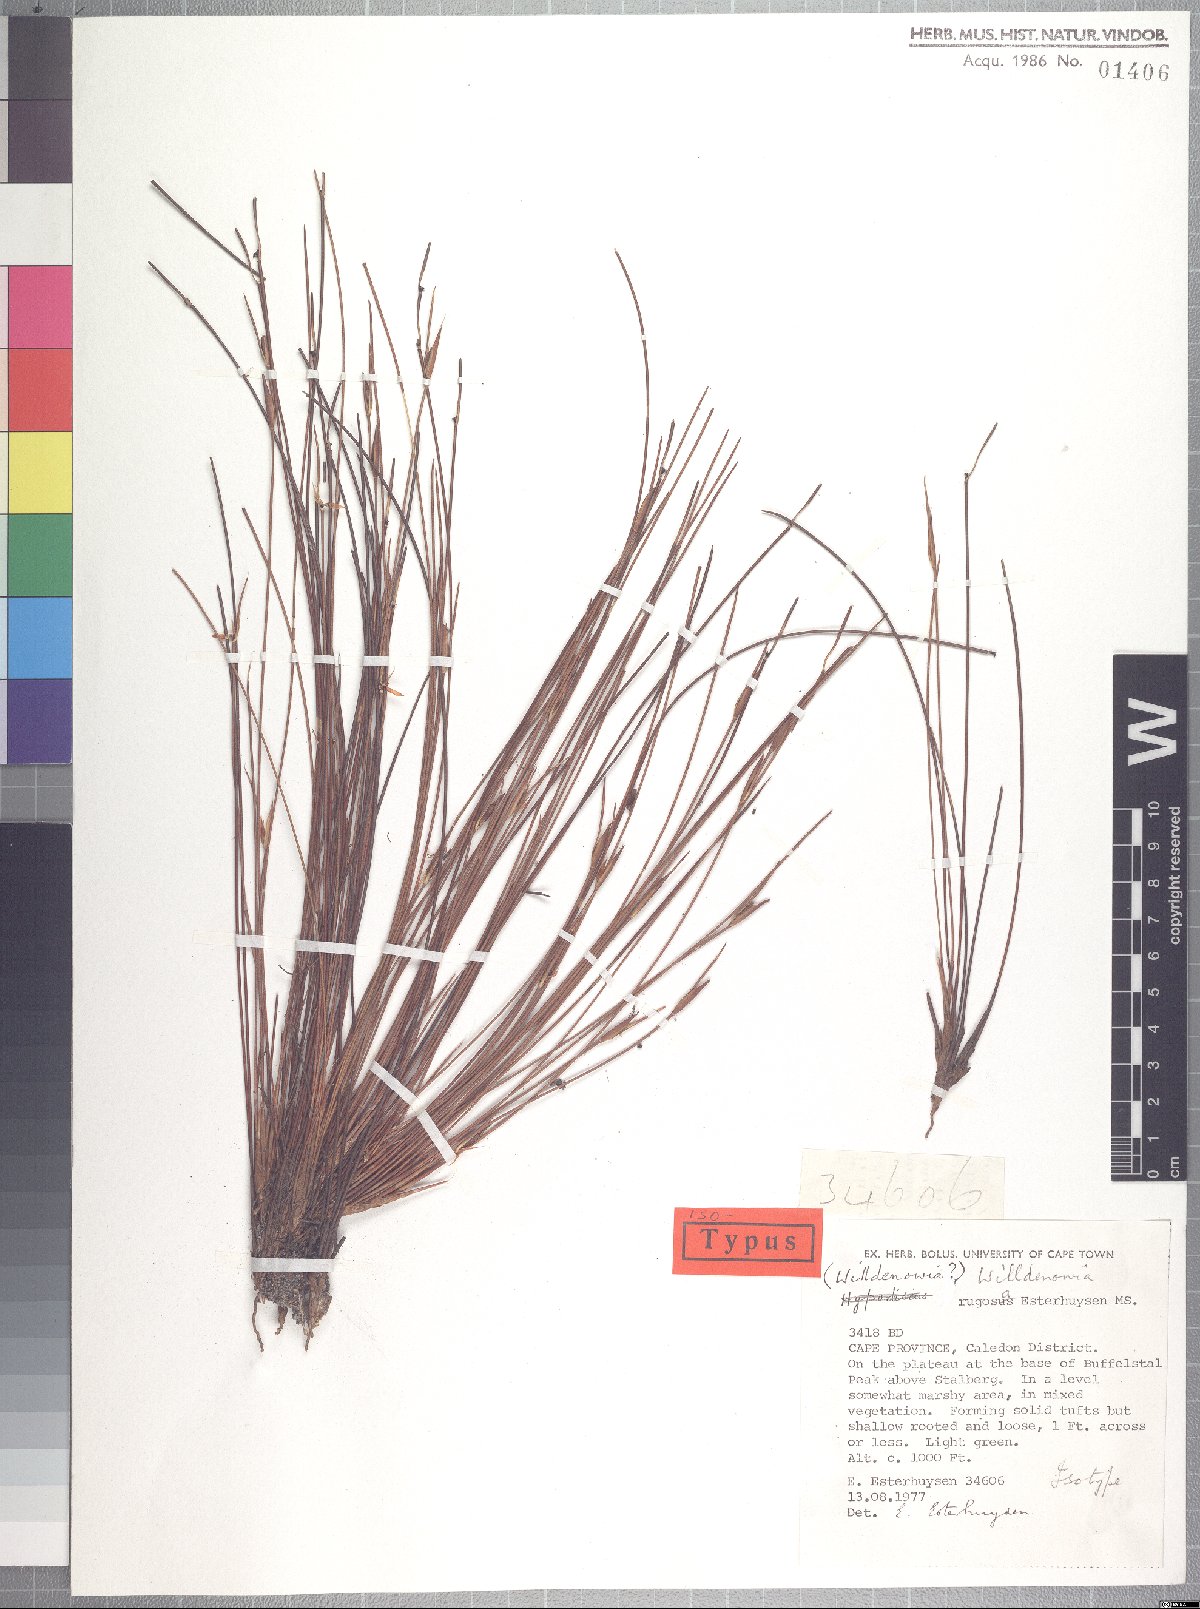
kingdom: Plantae
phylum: Tracheophyta
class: Liliopsida
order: Poales
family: Restionaceae
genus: Willdenowia
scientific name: Willdenowia rugosa
